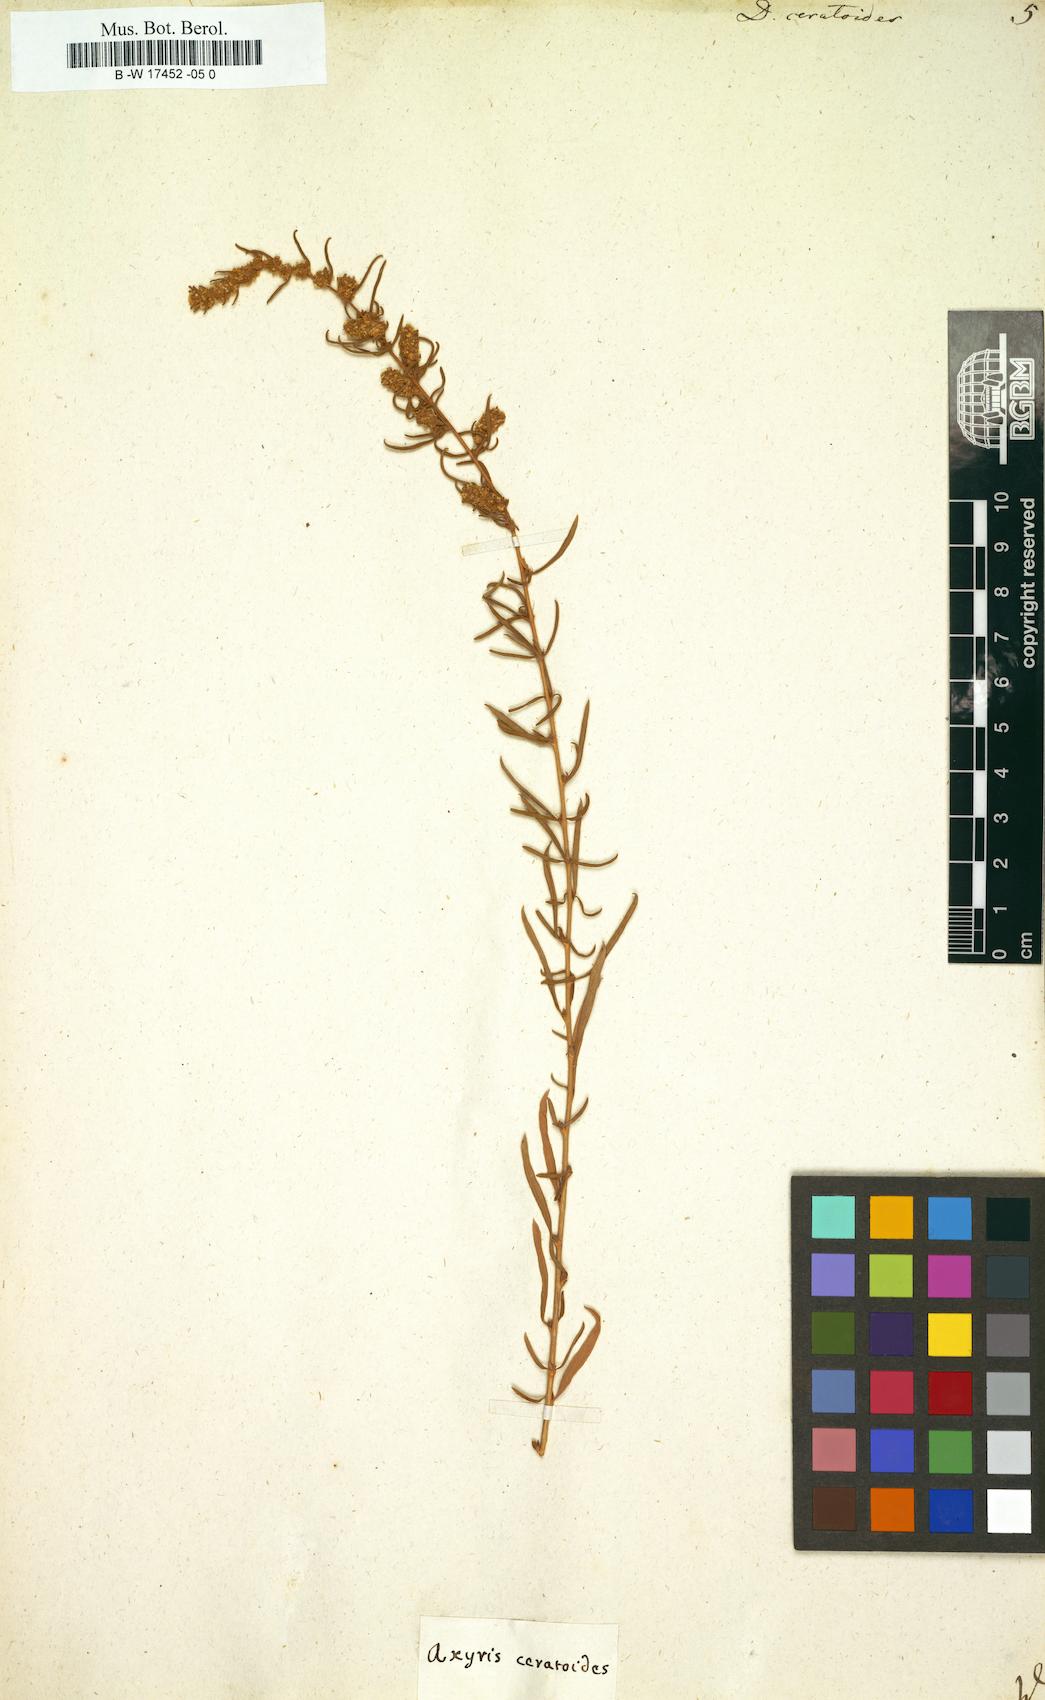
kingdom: Plantae
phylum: Tracheophyta
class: Magnoliopsida
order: Caryophyllales
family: Amaranthaceae
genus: Krascheninnikovia
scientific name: Krascheninnikovia ceratoides
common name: Pamirian winterfat
